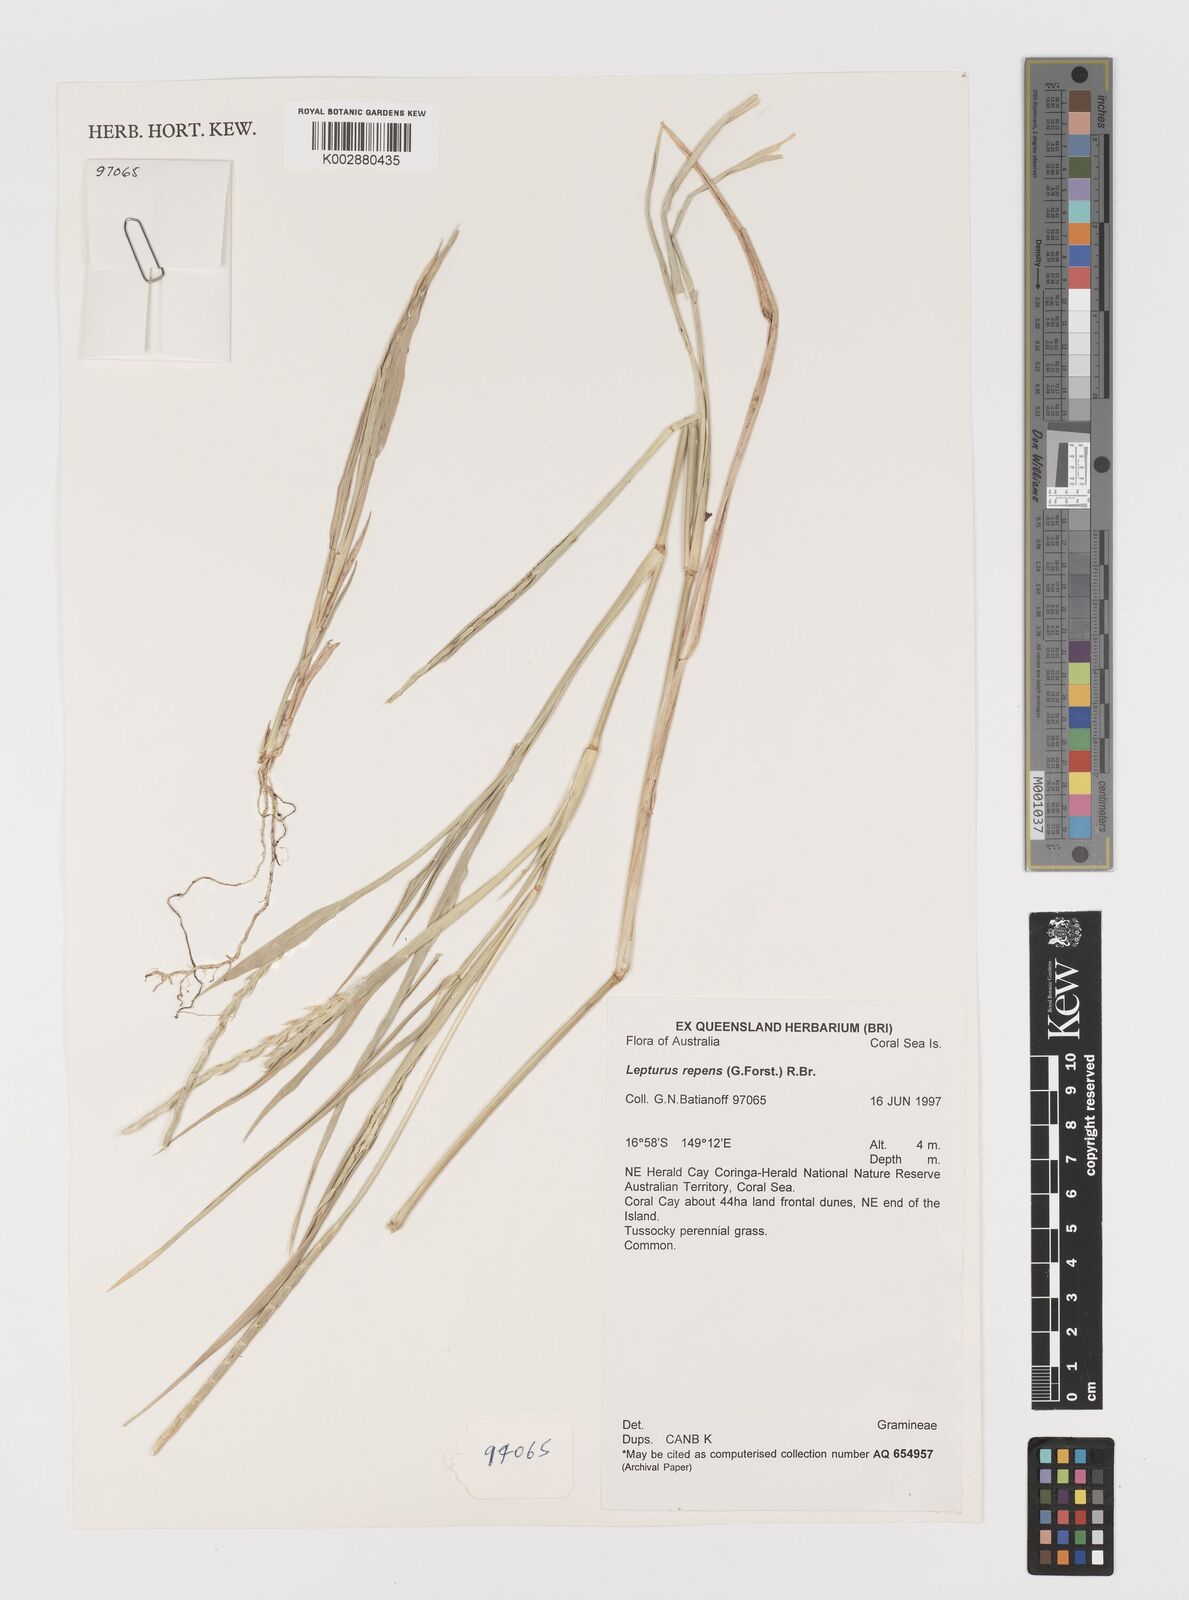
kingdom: Plantae
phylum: Tracheophyta
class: Liliopsida
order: Poales
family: Poaceae
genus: Lepturus
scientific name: Lepturus repens
